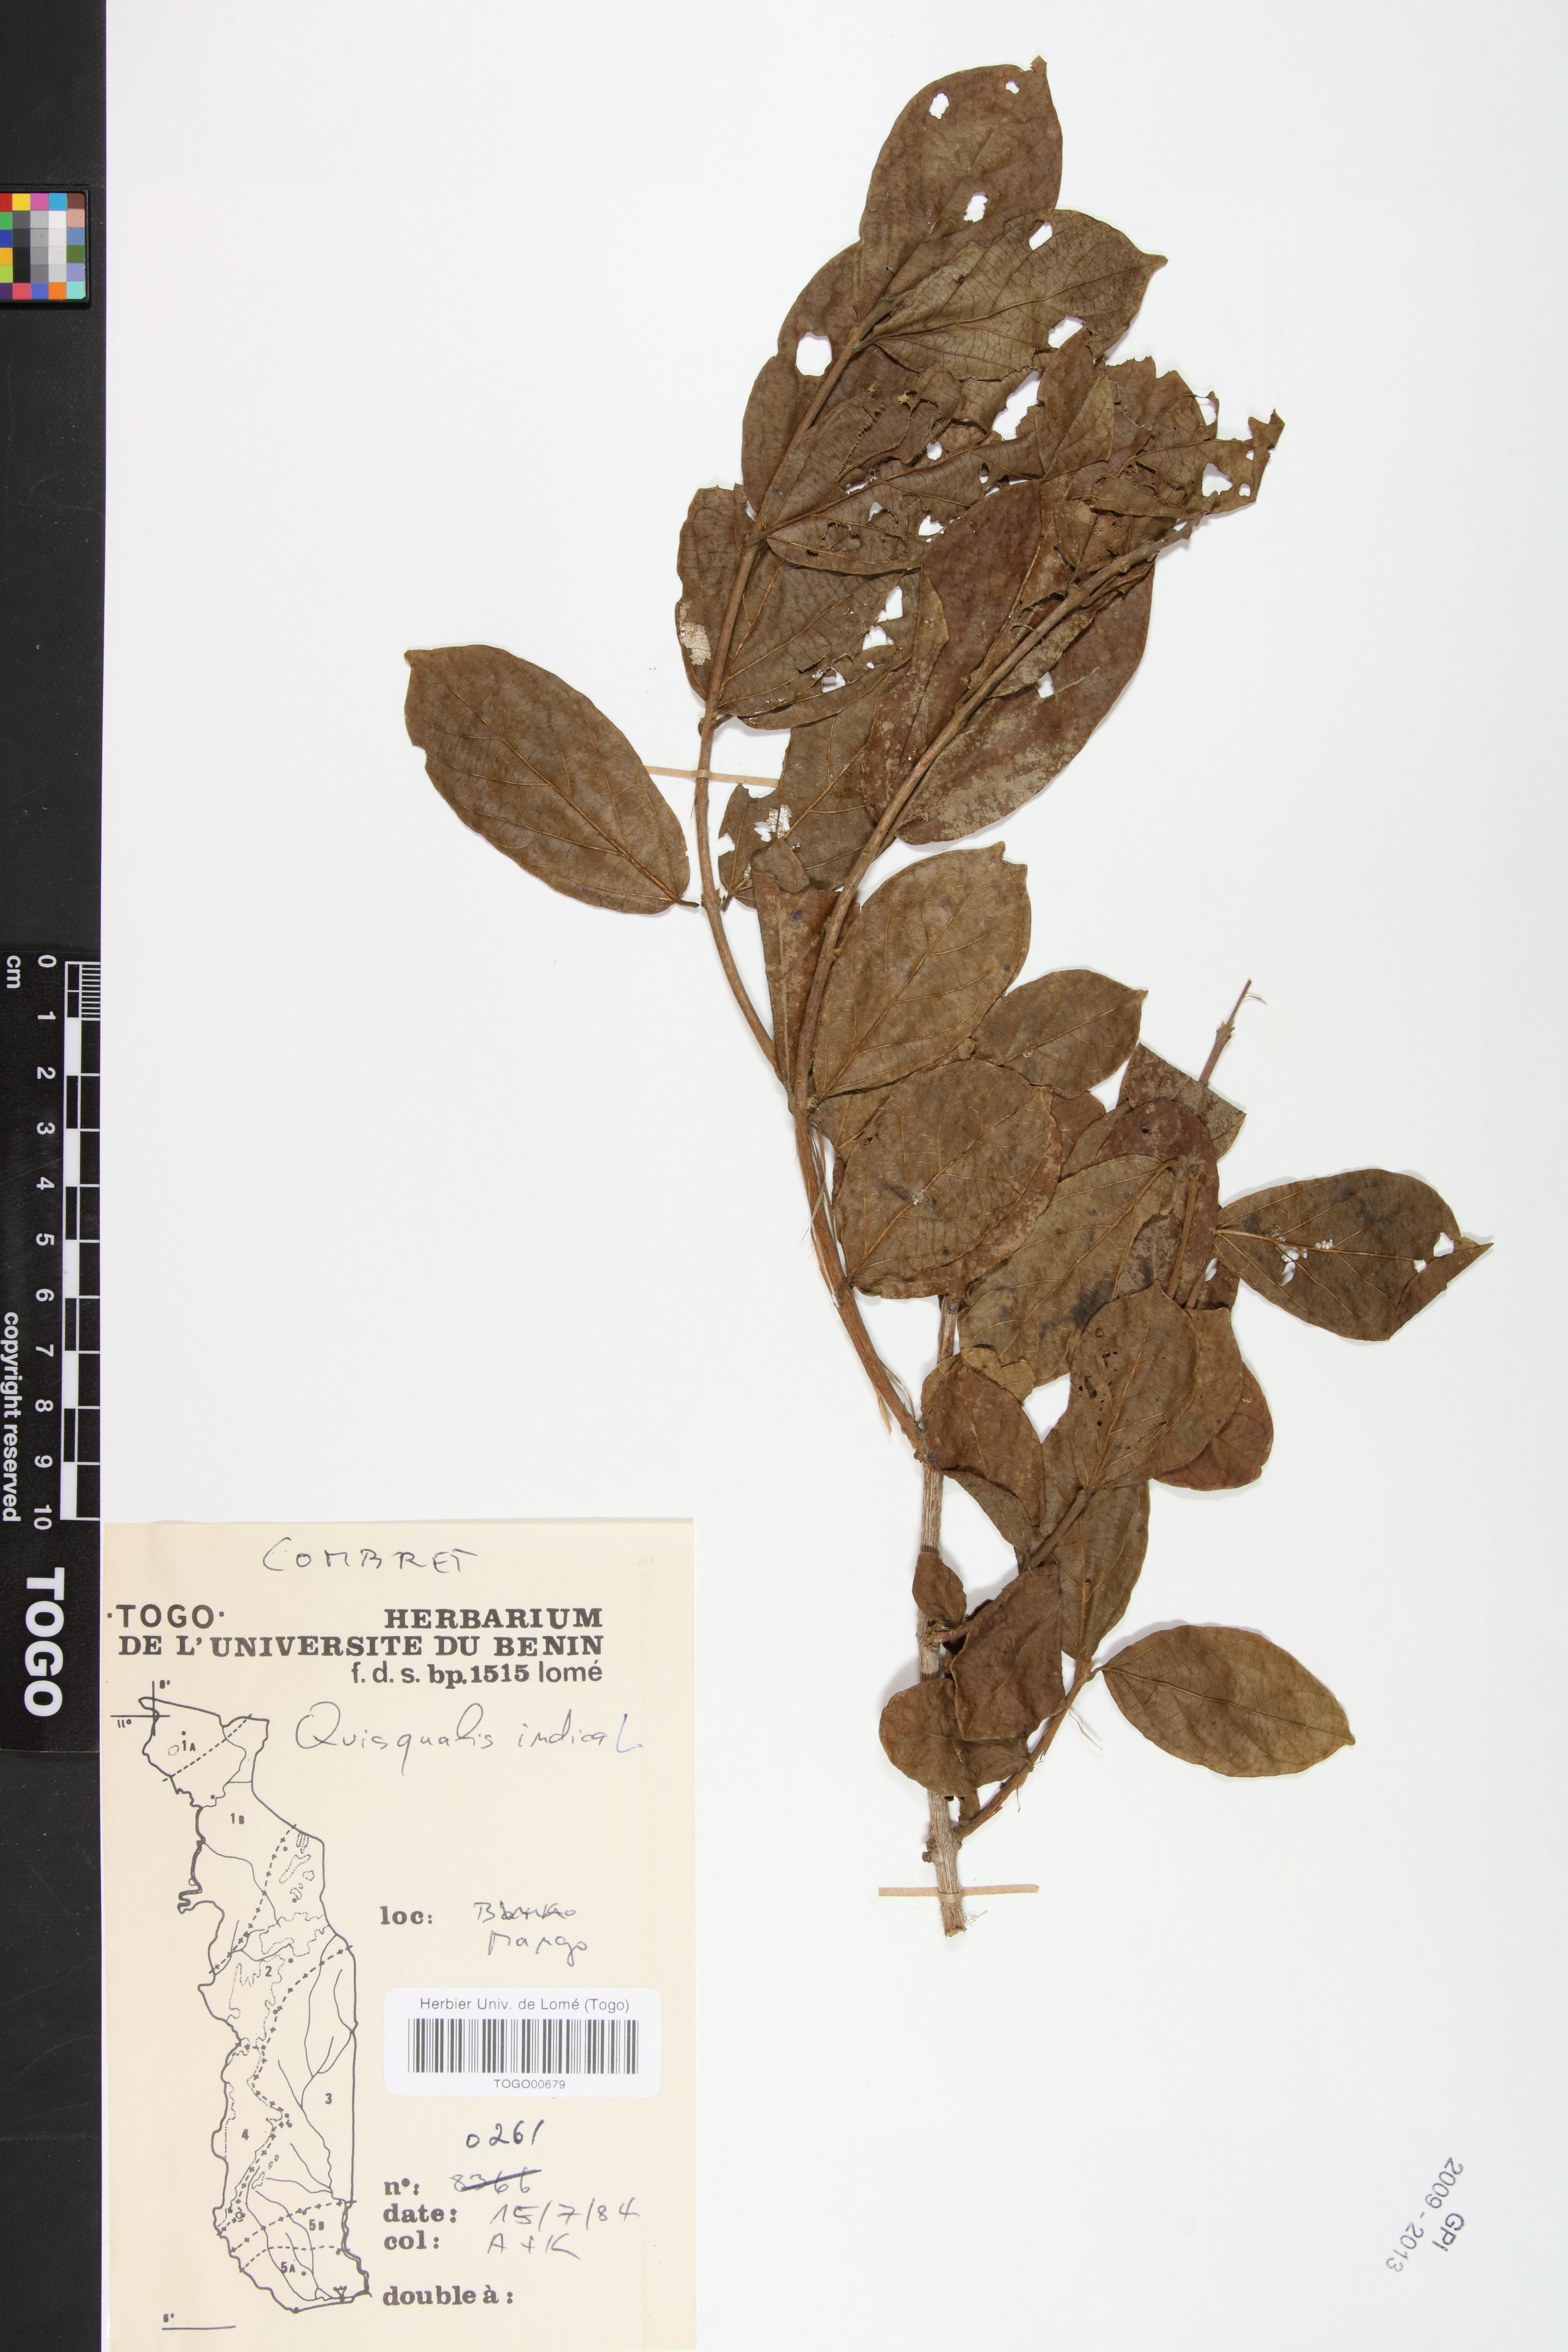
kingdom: Plantae
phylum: Tracheophyta
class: Magnoliopsida
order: Myrtales
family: Combretaceae
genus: Combretum
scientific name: Combretum indicum
